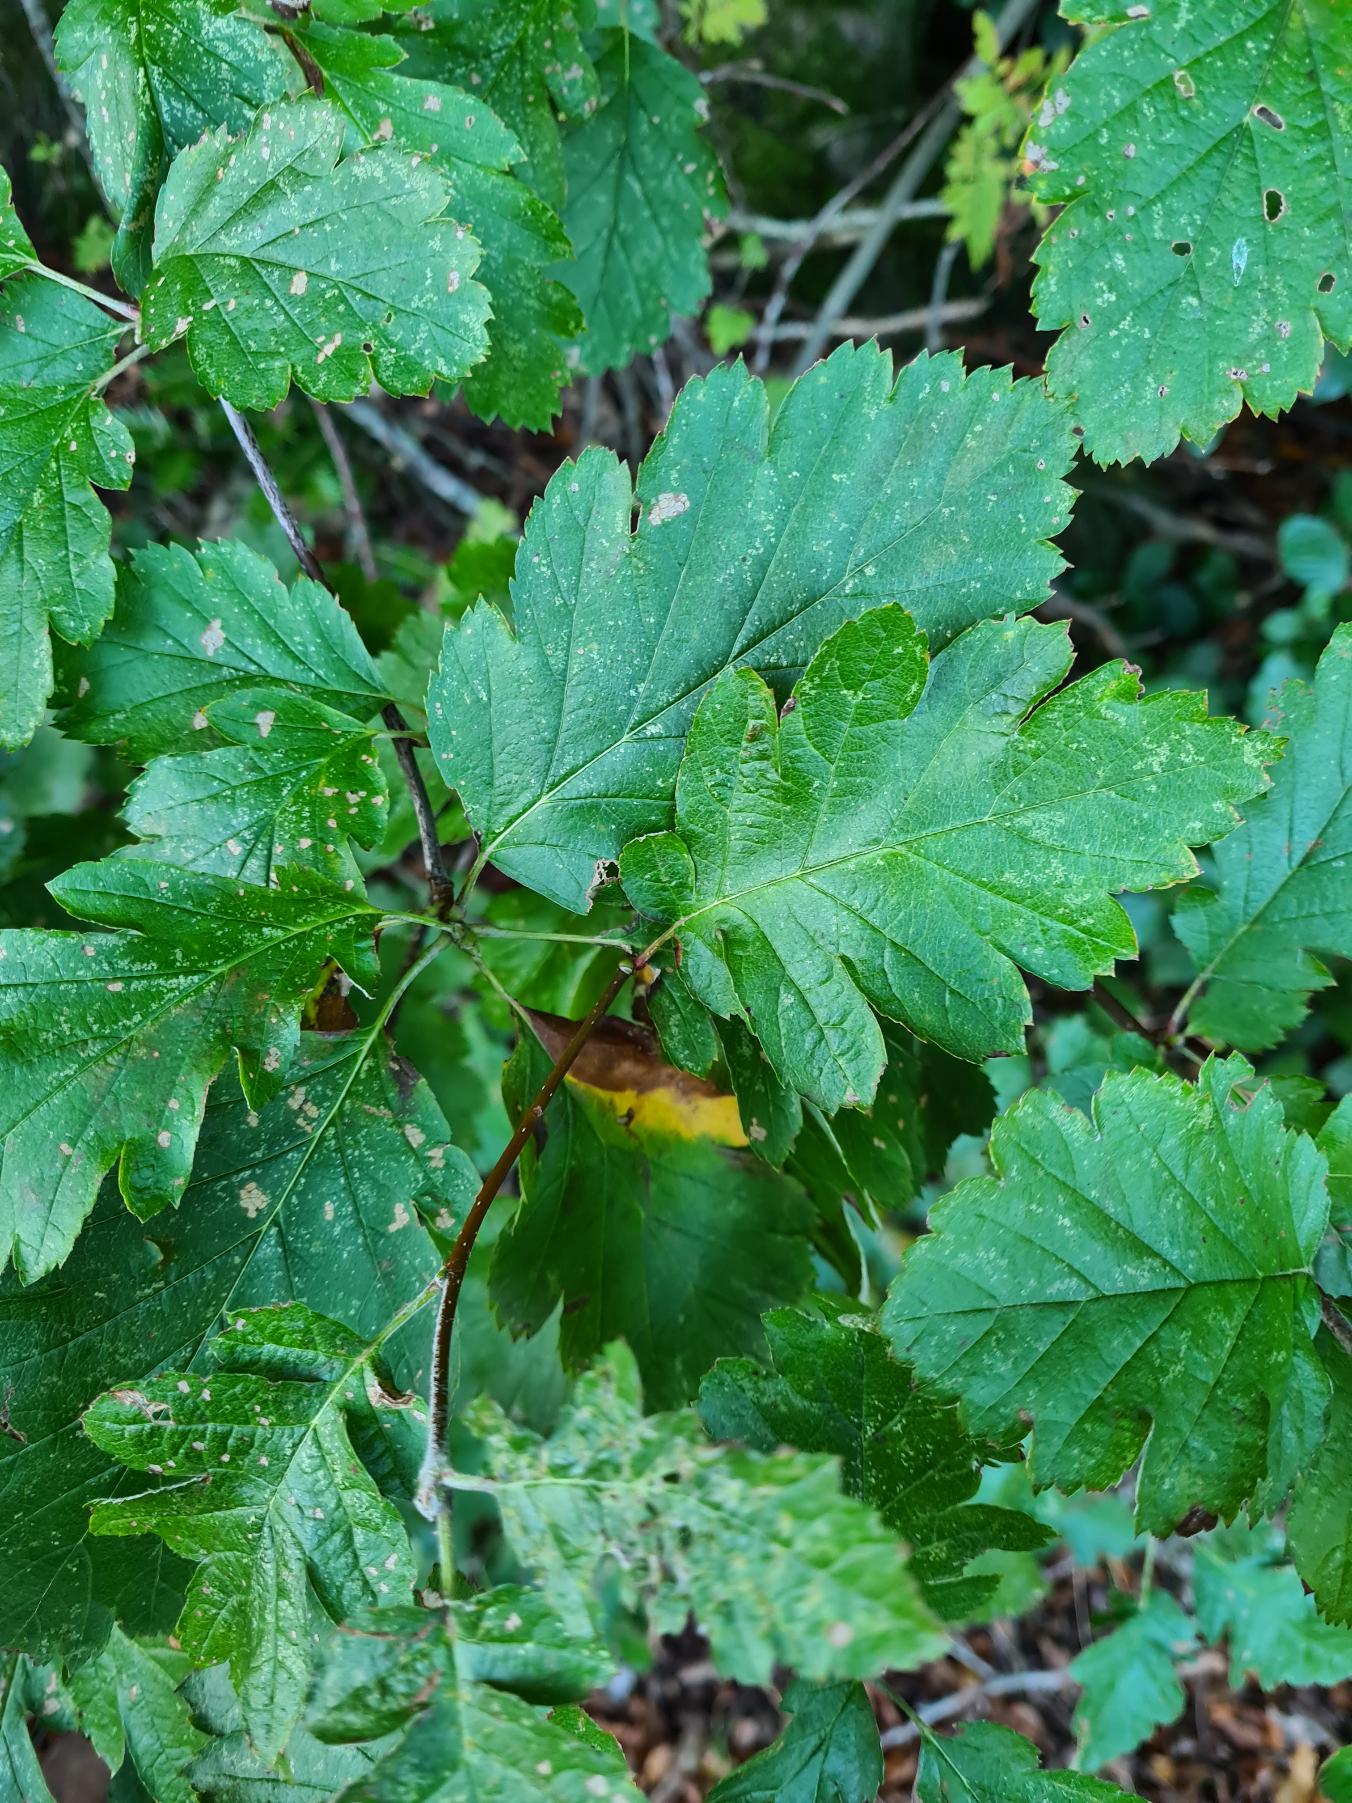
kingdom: Plantae
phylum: Tracheophyta
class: Magnoliopsida
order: Rosales
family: Rosaceae
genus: Scandosorbus
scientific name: Scandosorbus intermedia
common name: Selje-røn
